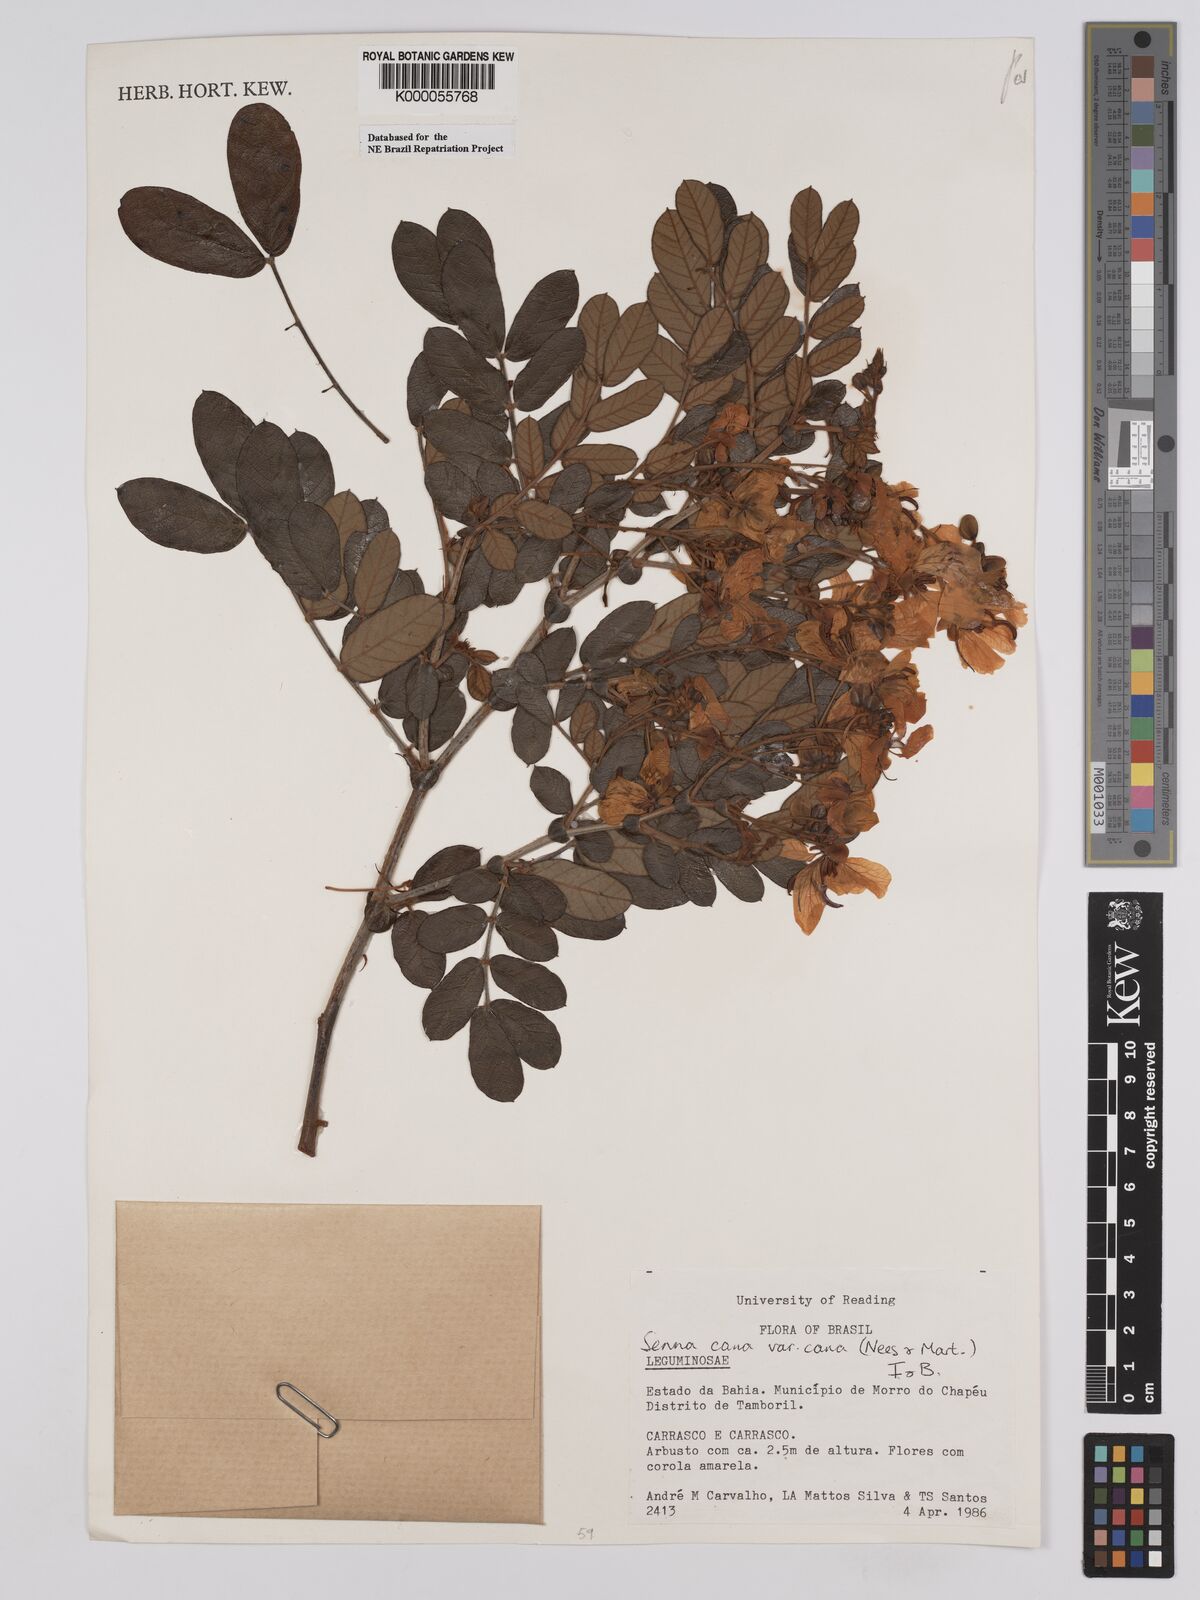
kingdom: Plantae
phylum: Tracheophyta
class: Magnoliopsida
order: Fabales
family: Fabaceae
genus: Senna
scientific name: Senna cana
